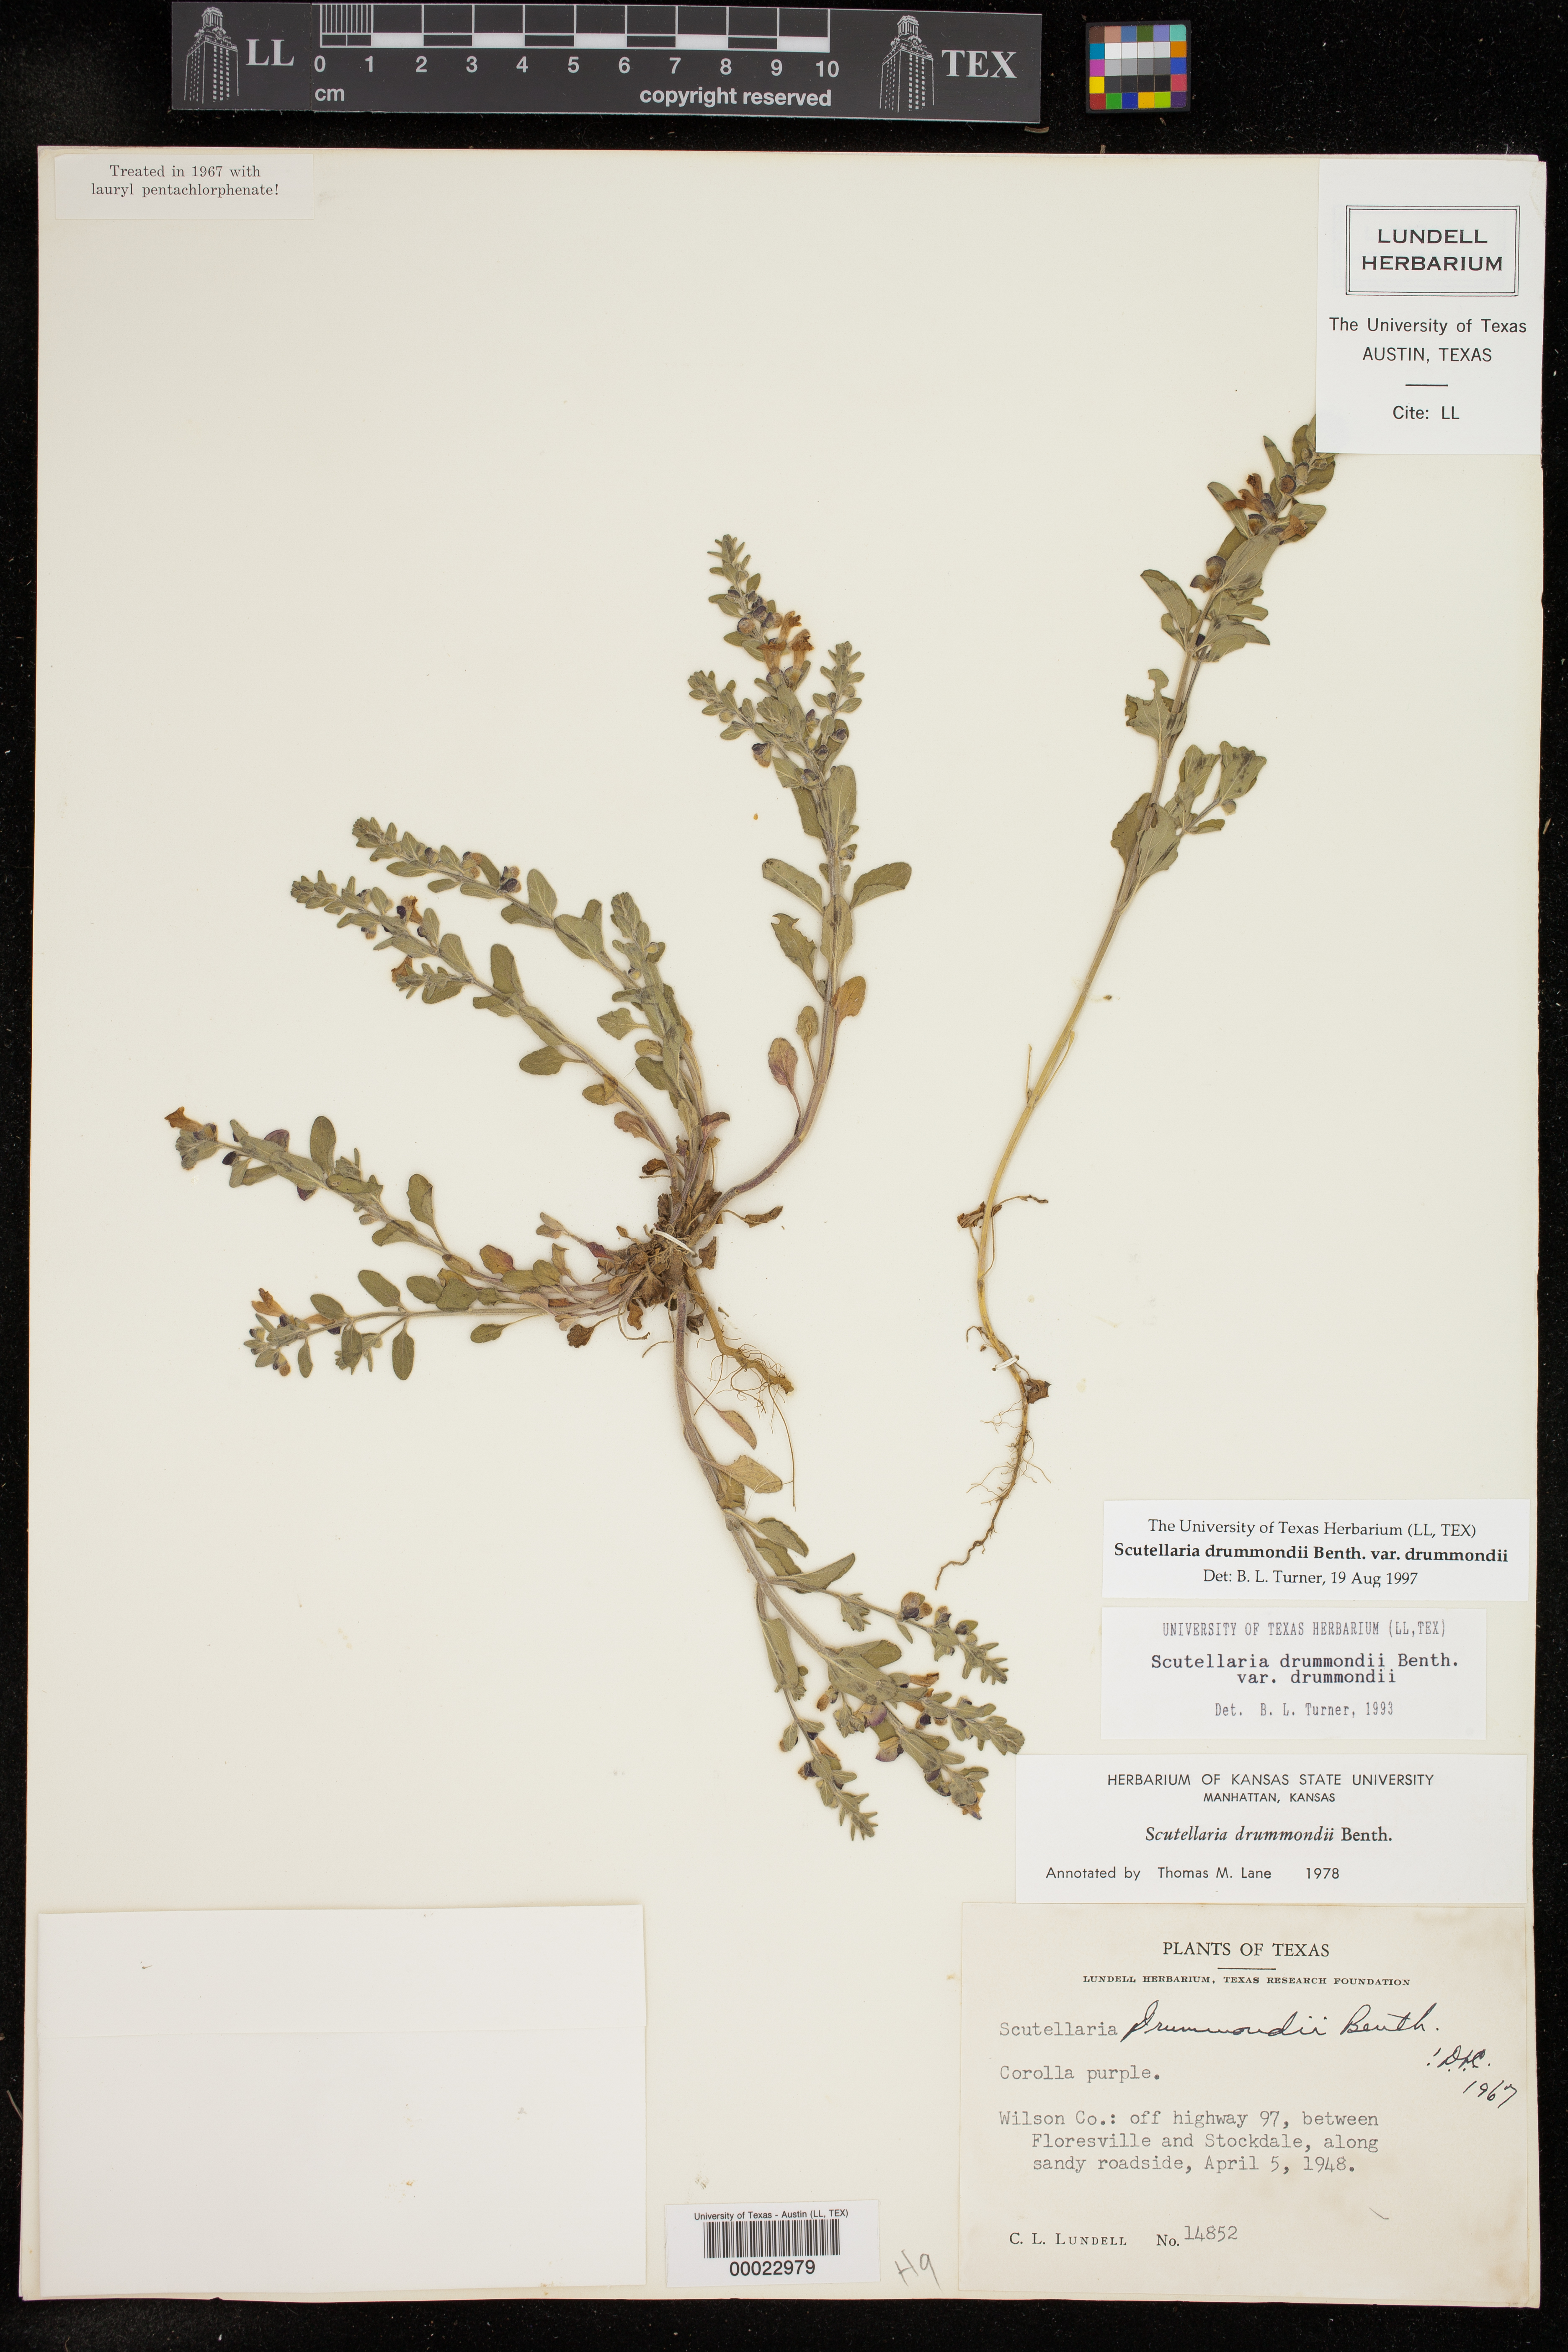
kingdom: Plantae
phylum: Tracheophyta
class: Magnoliopsida
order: Lamiales
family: Lamiaceae
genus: Scutellaria
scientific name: Scutellaria drummondii
